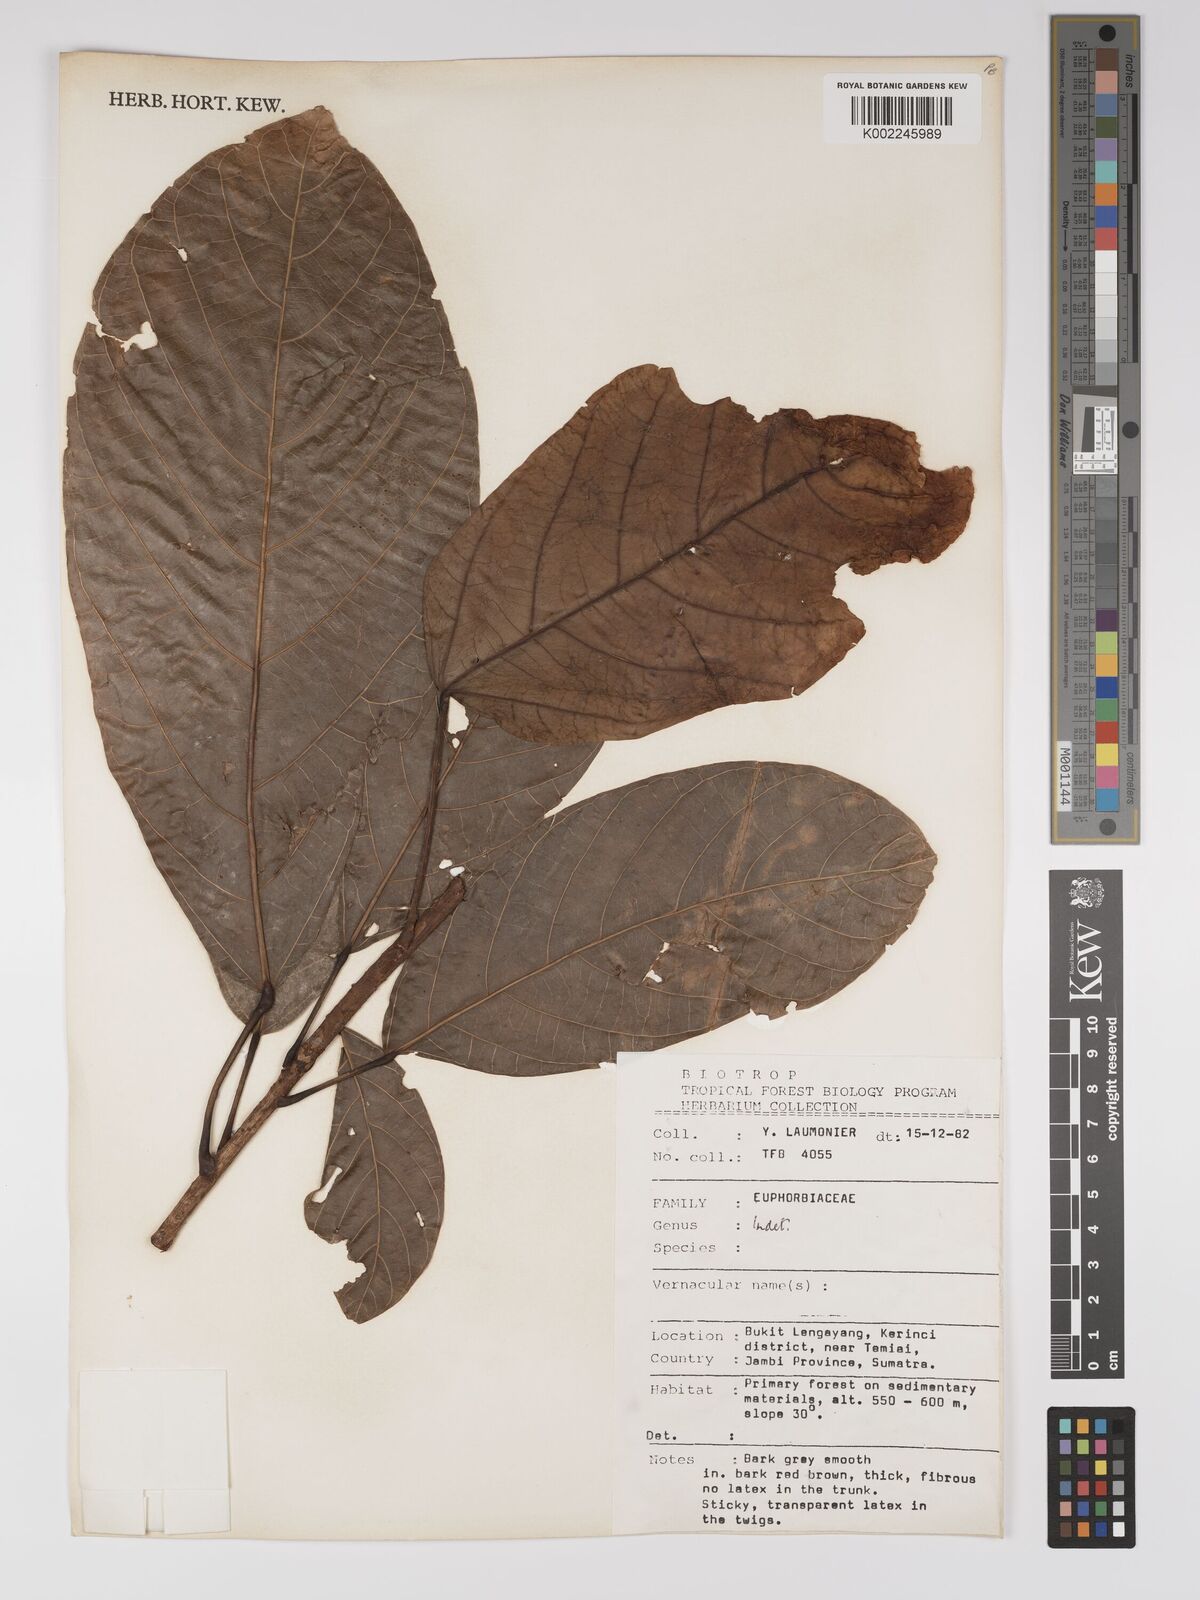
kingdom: Plantae
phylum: Tracheophyta
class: Magnoliopsida
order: Malpighiales
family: Euphorbiaceae
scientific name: Euphorbiaceae
